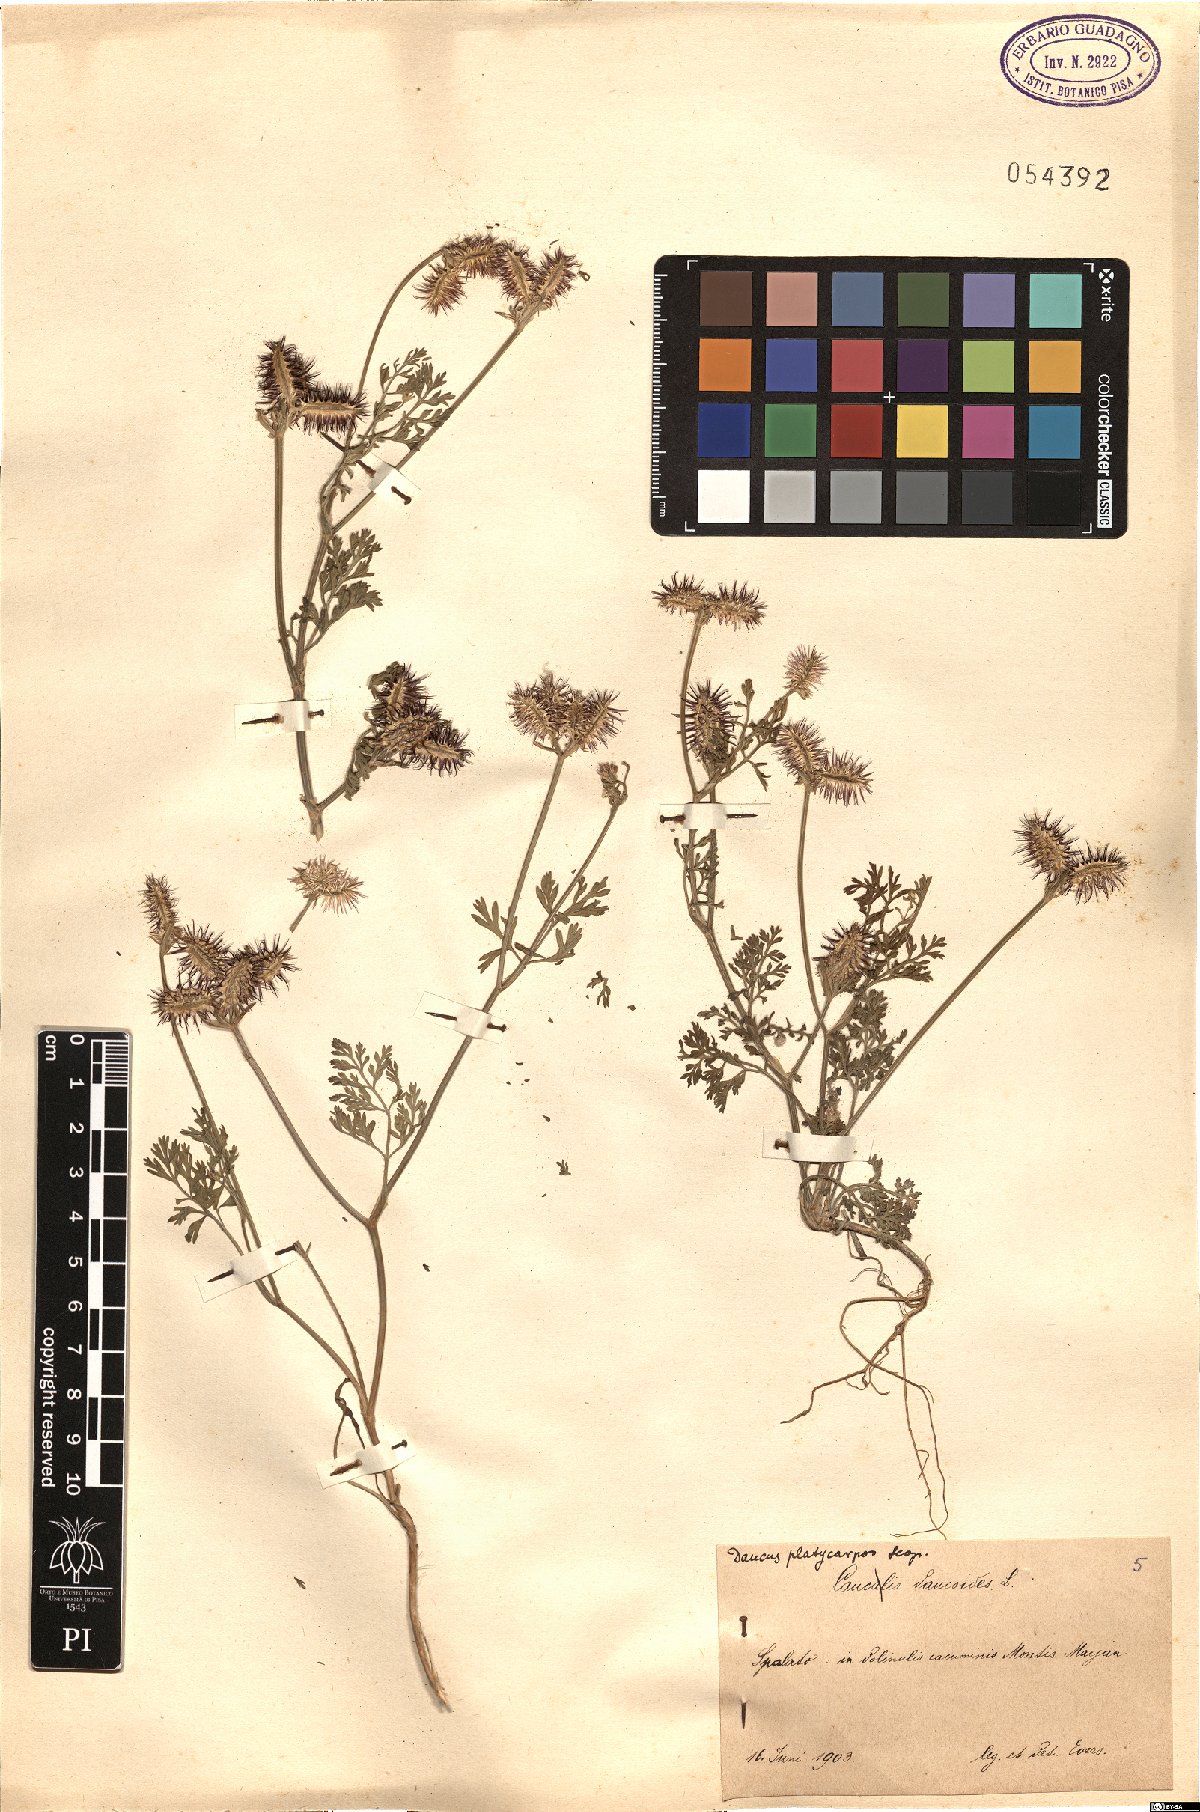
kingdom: Plantae
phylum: Tracheophyta
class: Magnoliopsida
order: Apiales
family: Apiaceae
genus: Caucalis
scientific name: Caucalis platycarpos
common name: Small bur-parsley
